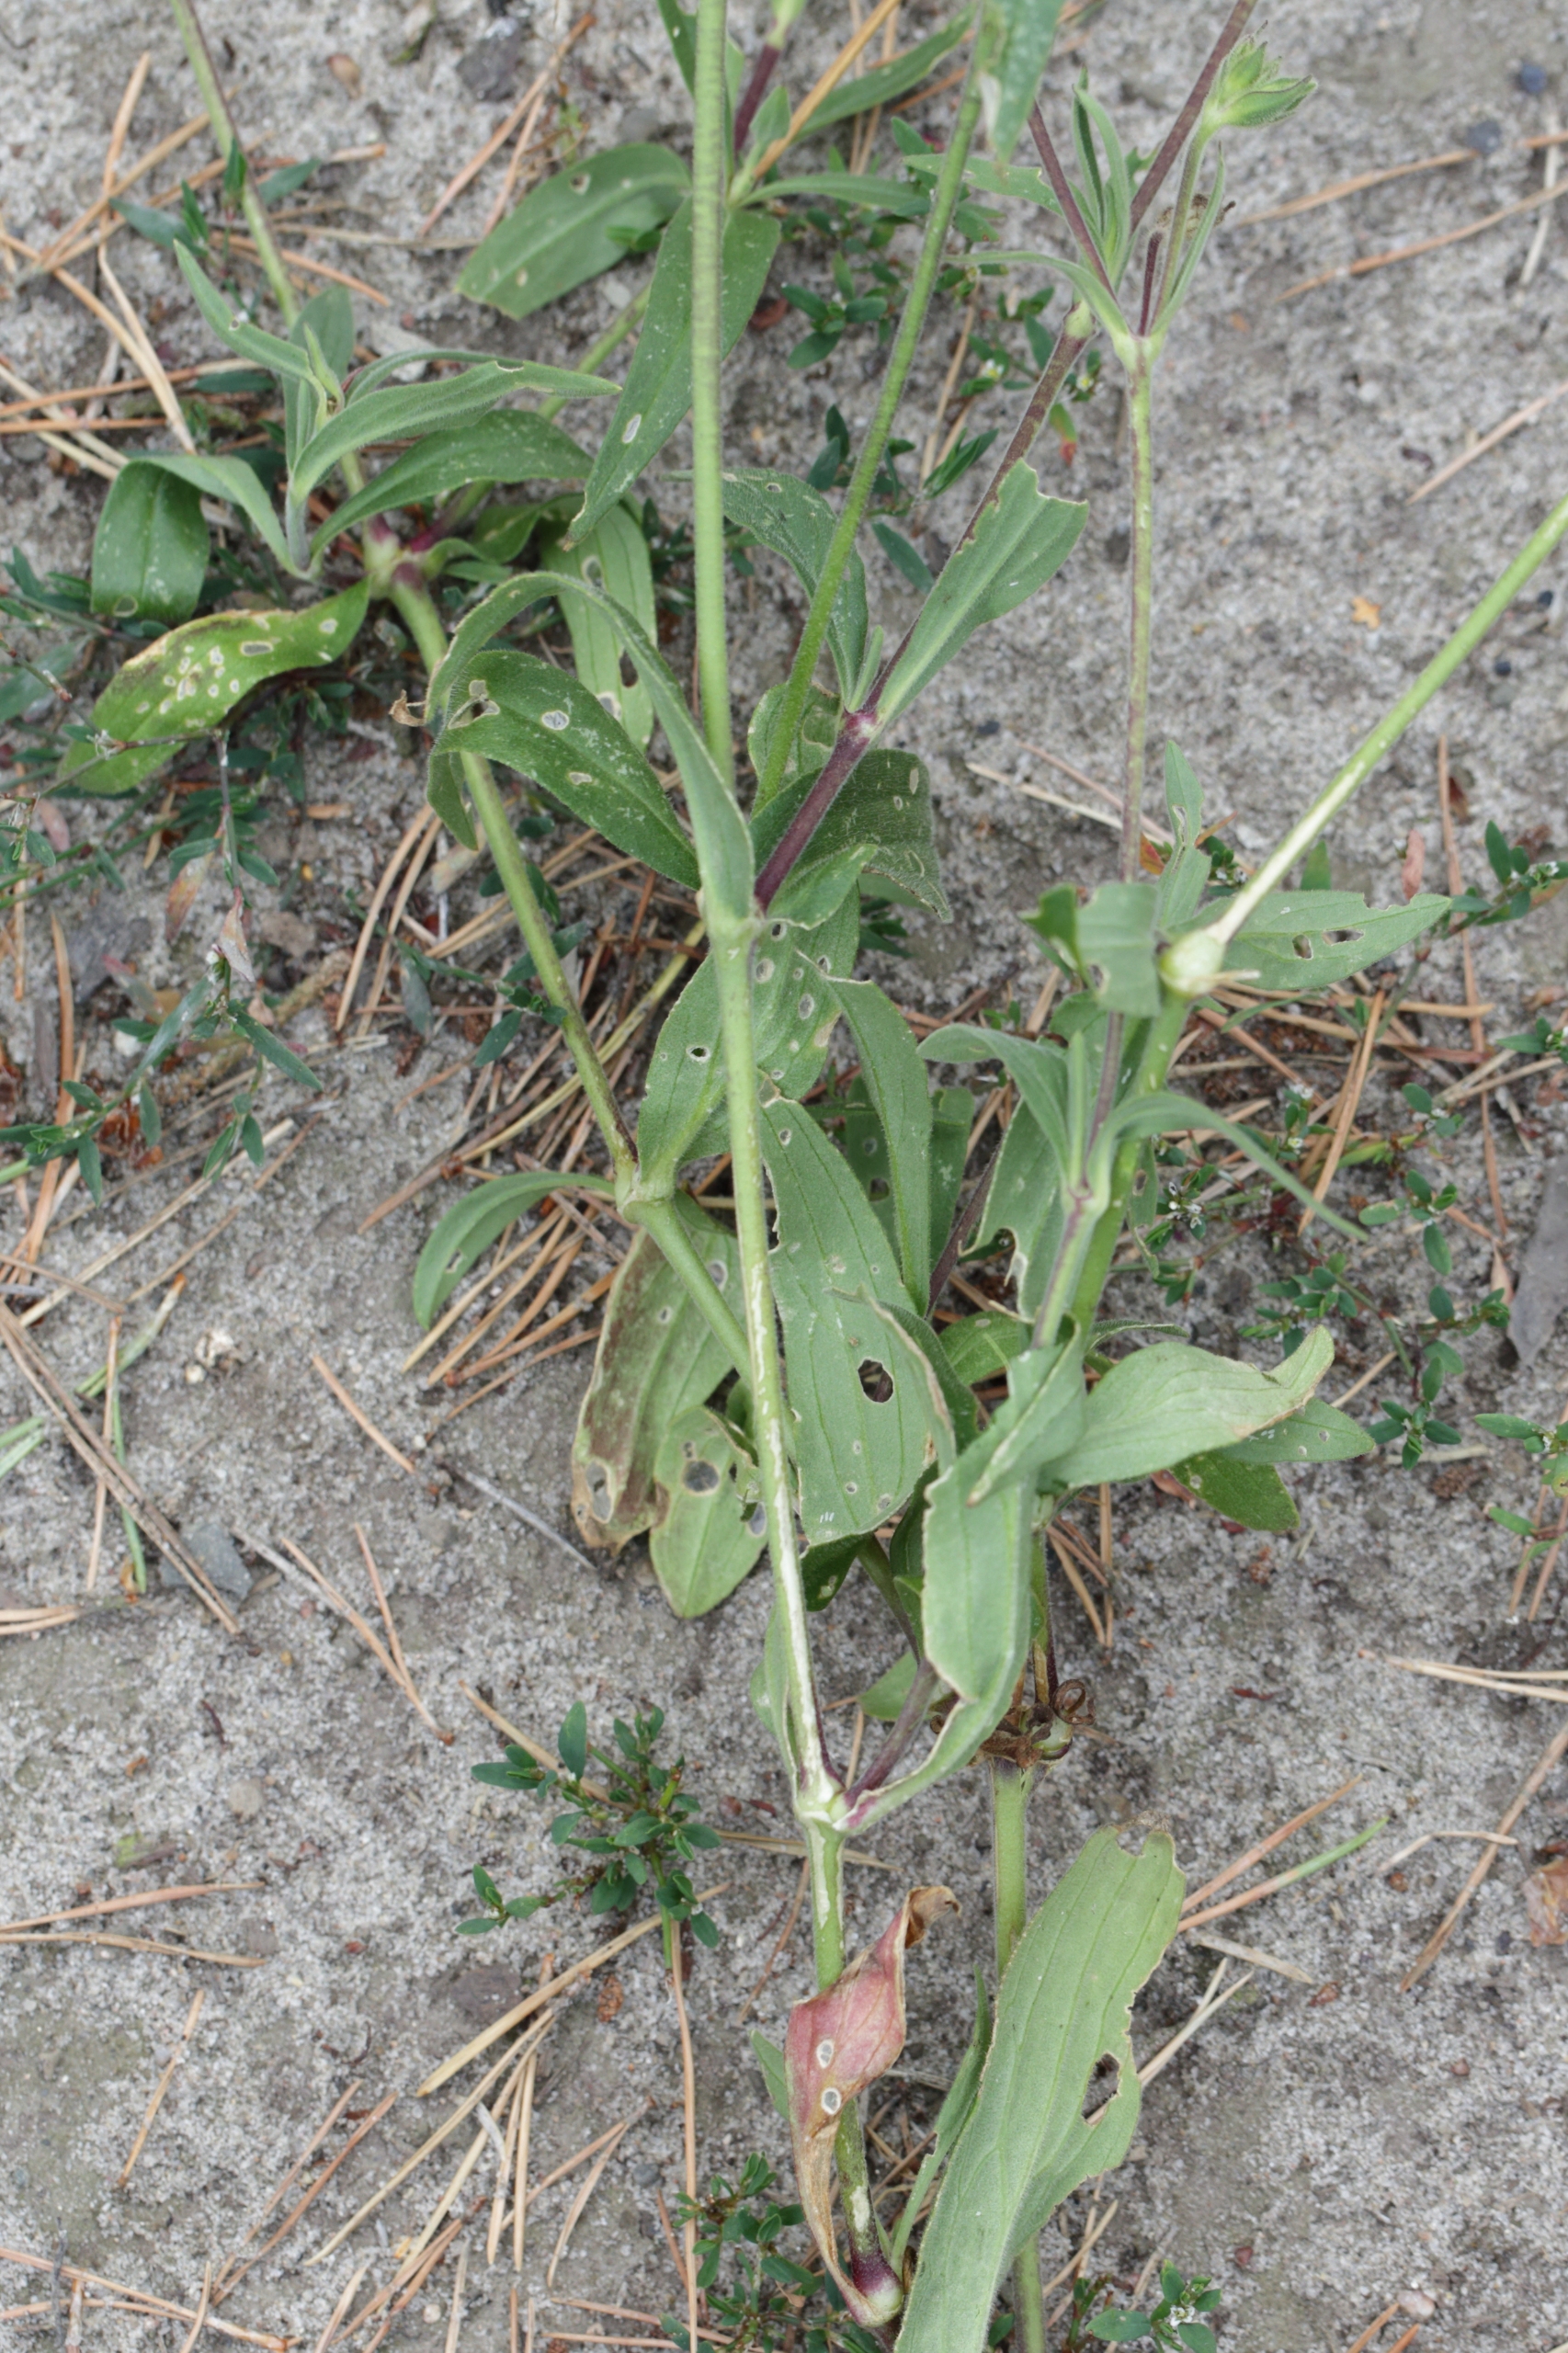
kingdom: Plantae
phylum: Tracheophyta
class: Magnoliopsida
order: Caryophyllales
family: Caryophyllaceae
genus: Silene
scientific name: Silene latifolia
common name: Aftenpragtstjerne
